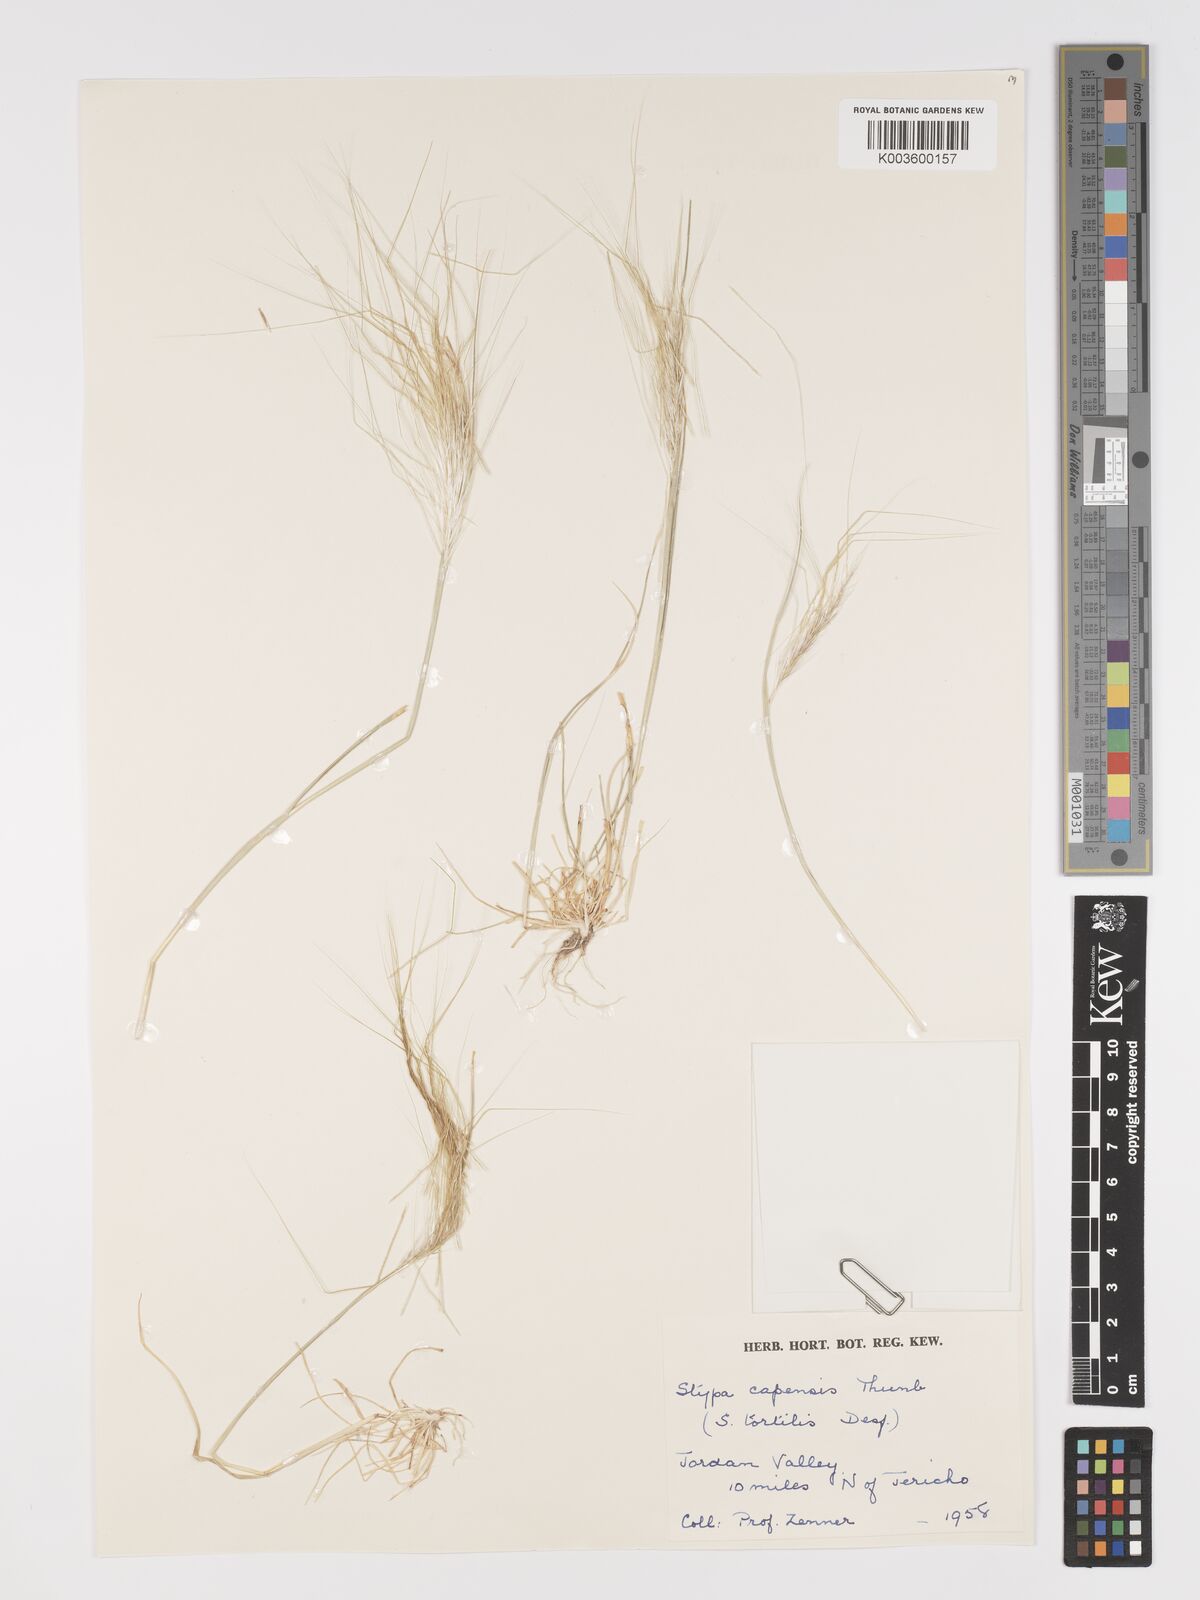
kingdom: Plantae
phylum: Tracheophyta
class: Liliopsida
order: Poales
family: Poaceae
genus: Stipellula
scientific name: Stipellula capensis
